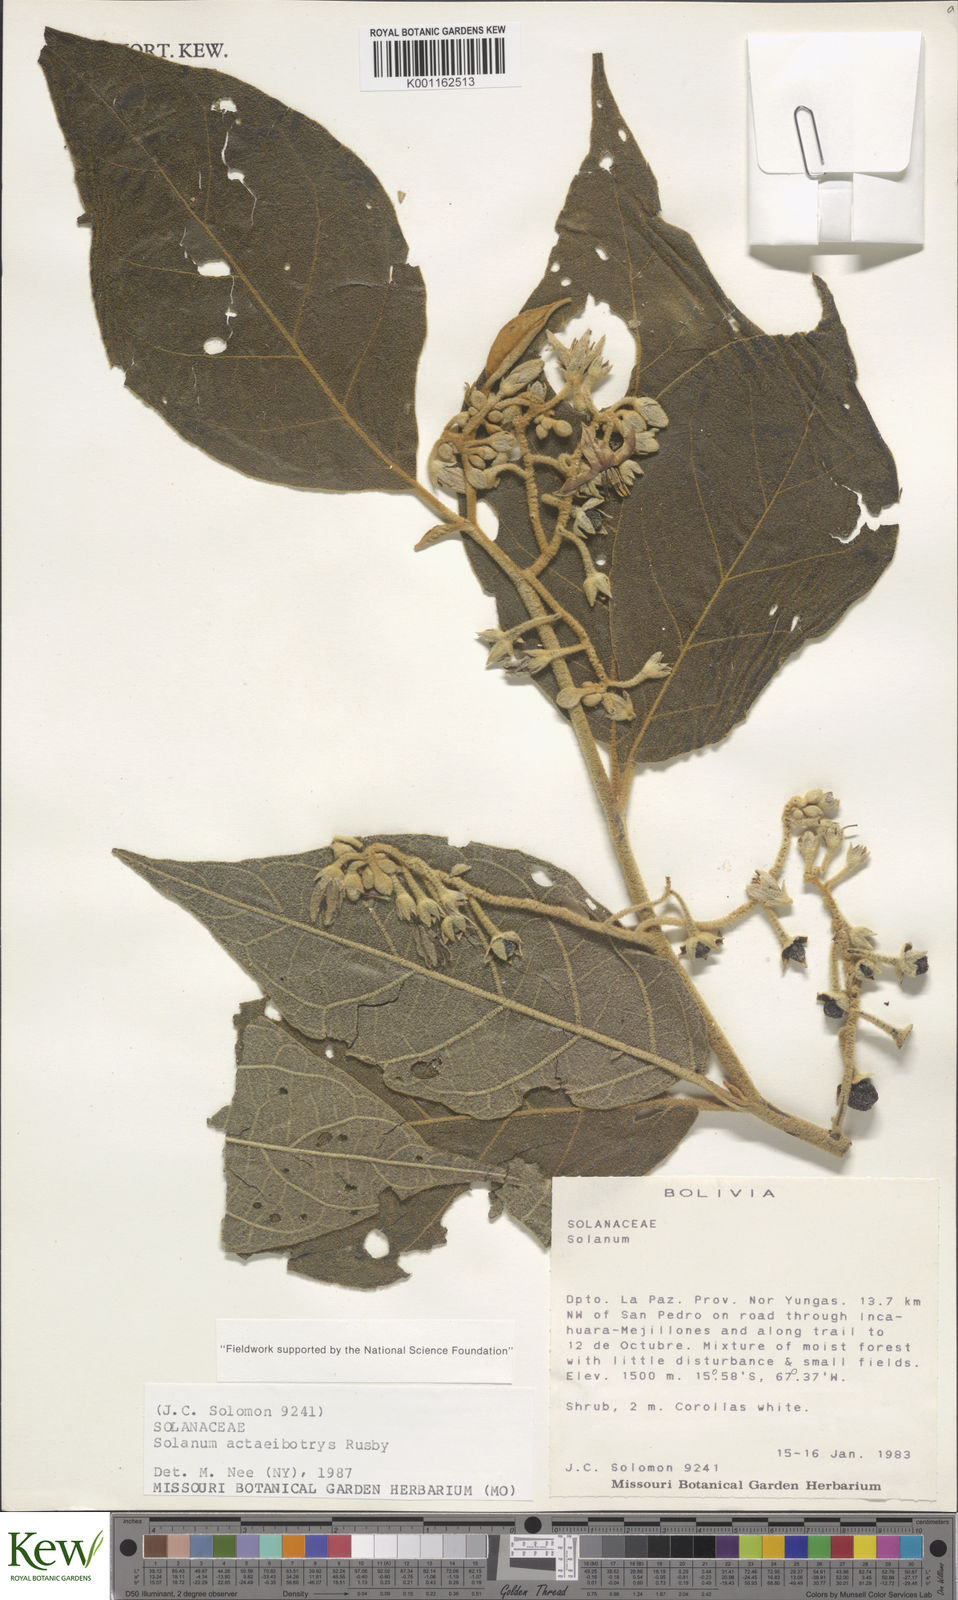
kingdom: Plantae
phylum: Tracheophyta
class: Magnoliopsida
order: Solanales
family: Solanaceae
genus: Solanum
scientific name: Solanum
